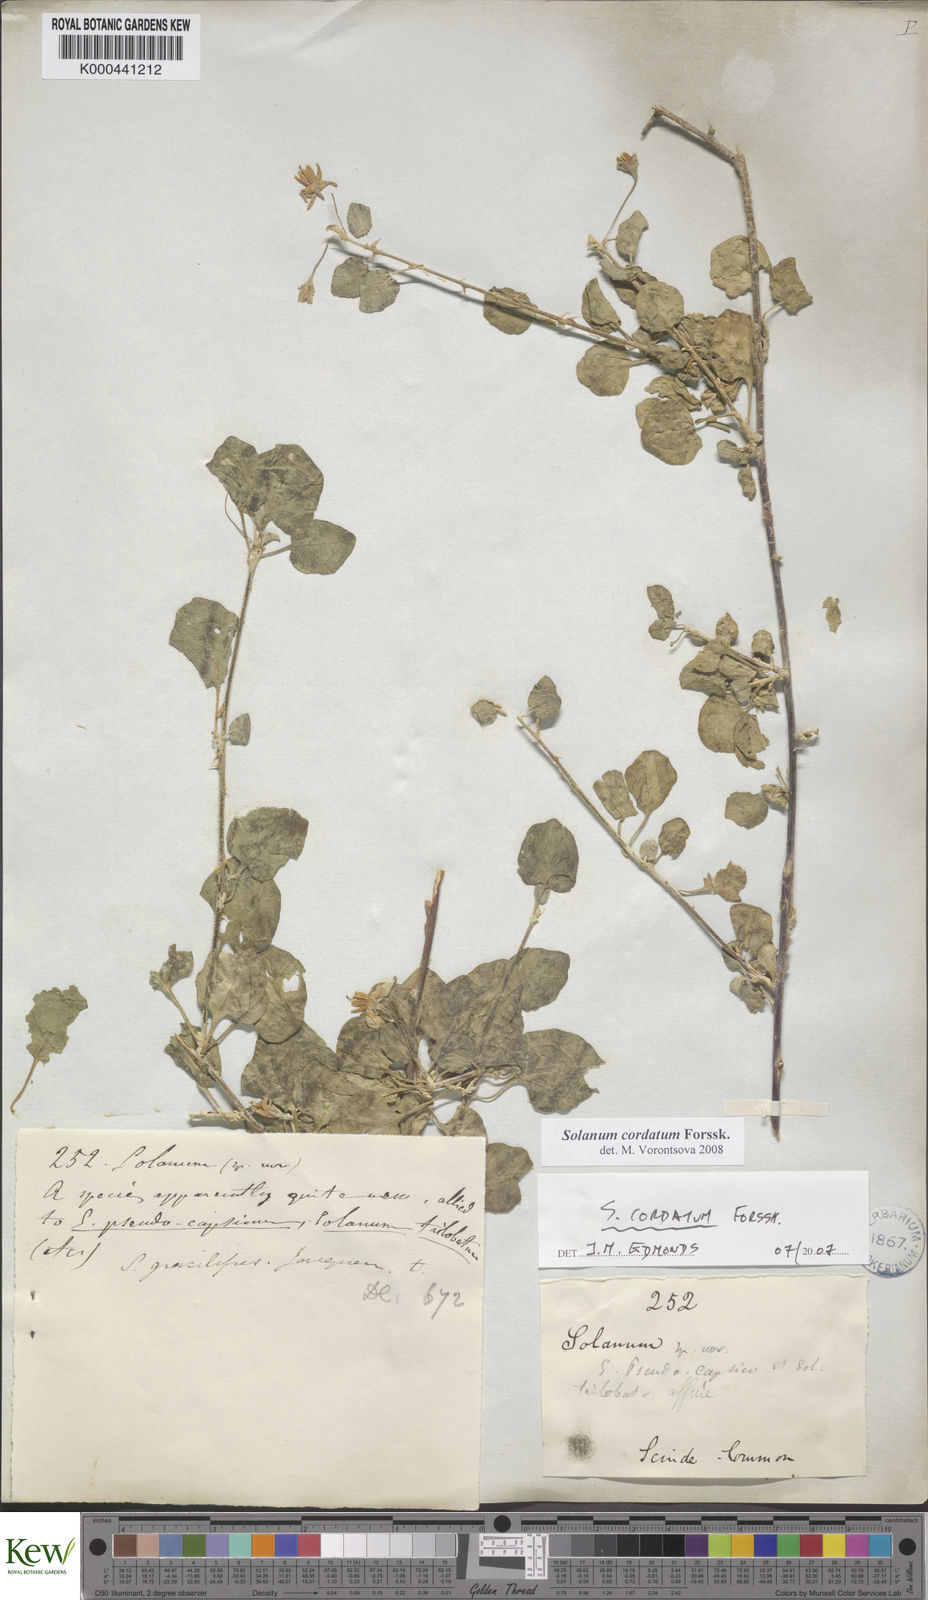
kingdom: Plantae
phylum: Tracheophyta
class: Magnoliopsida
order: Solanales
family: Solanaceae
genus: Solanum
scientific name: Solanum cordatum
